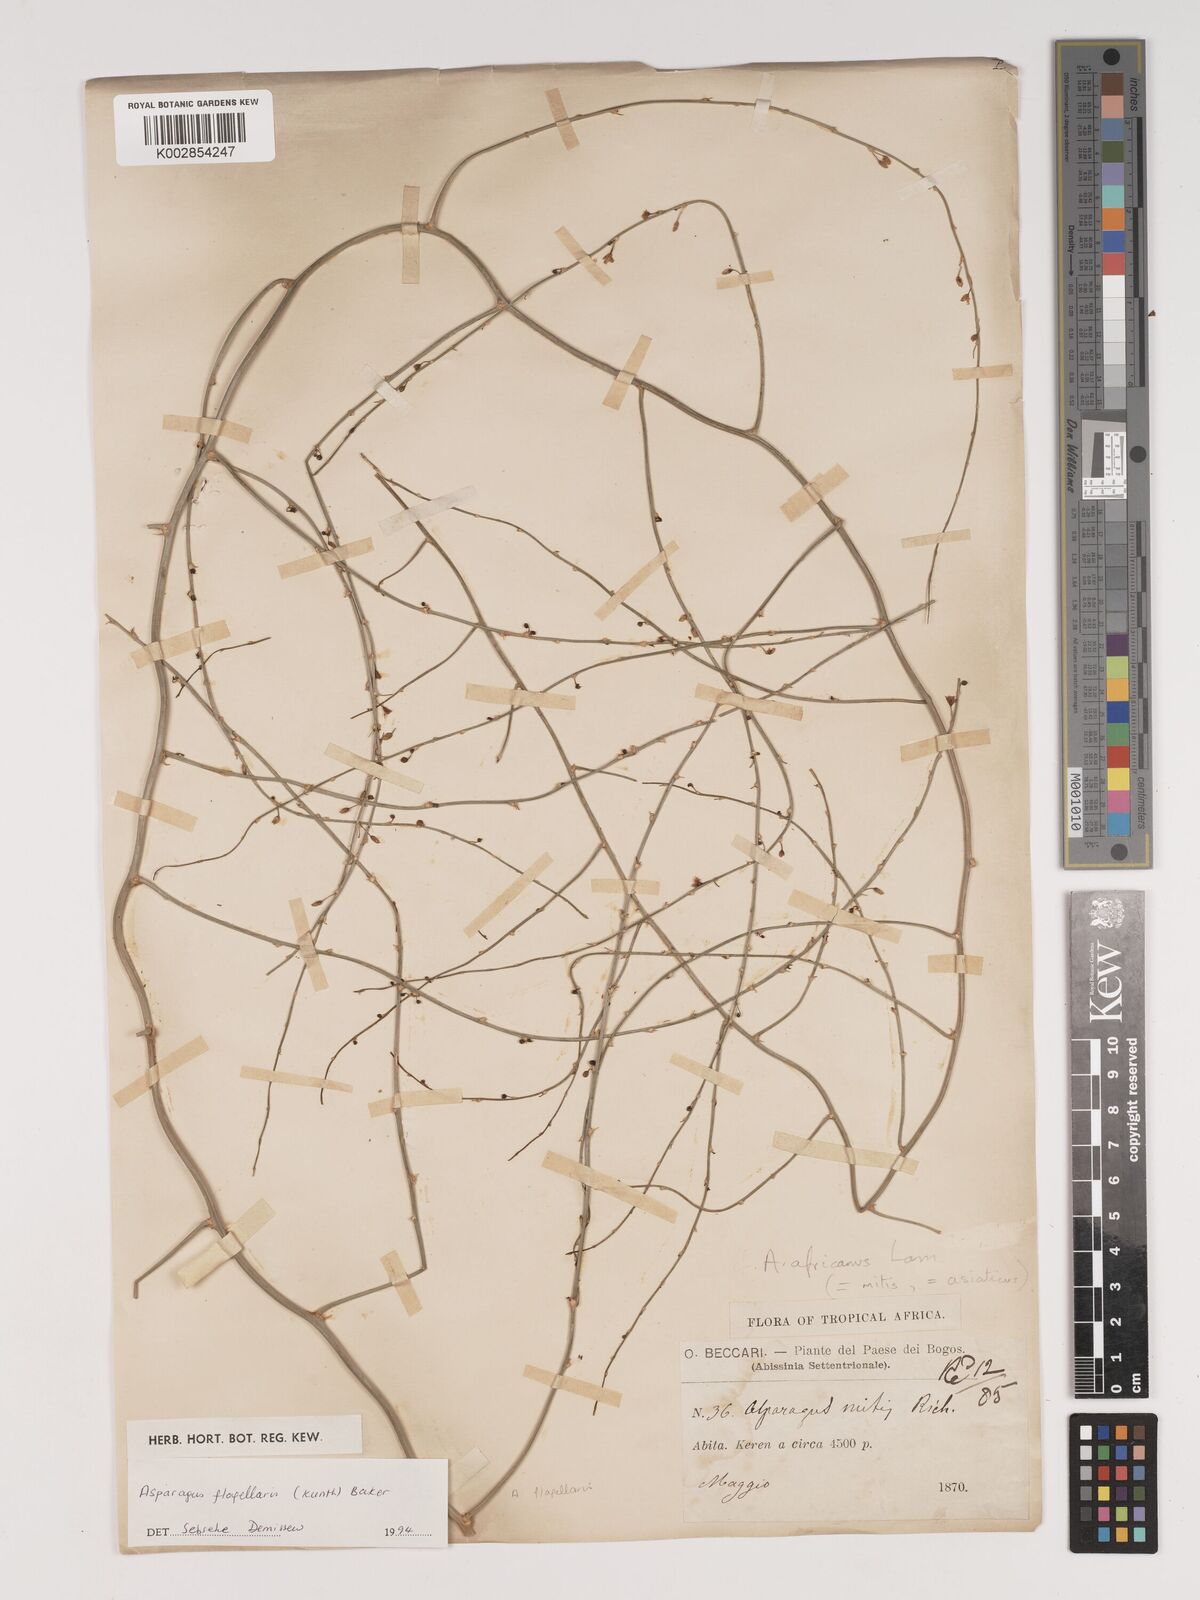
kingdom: Plantae
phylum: Tracheophyta
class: Liliopsida
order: Asparagales
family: Asparagaceae
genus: Asparagus
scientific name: Asparagus flagellaris
